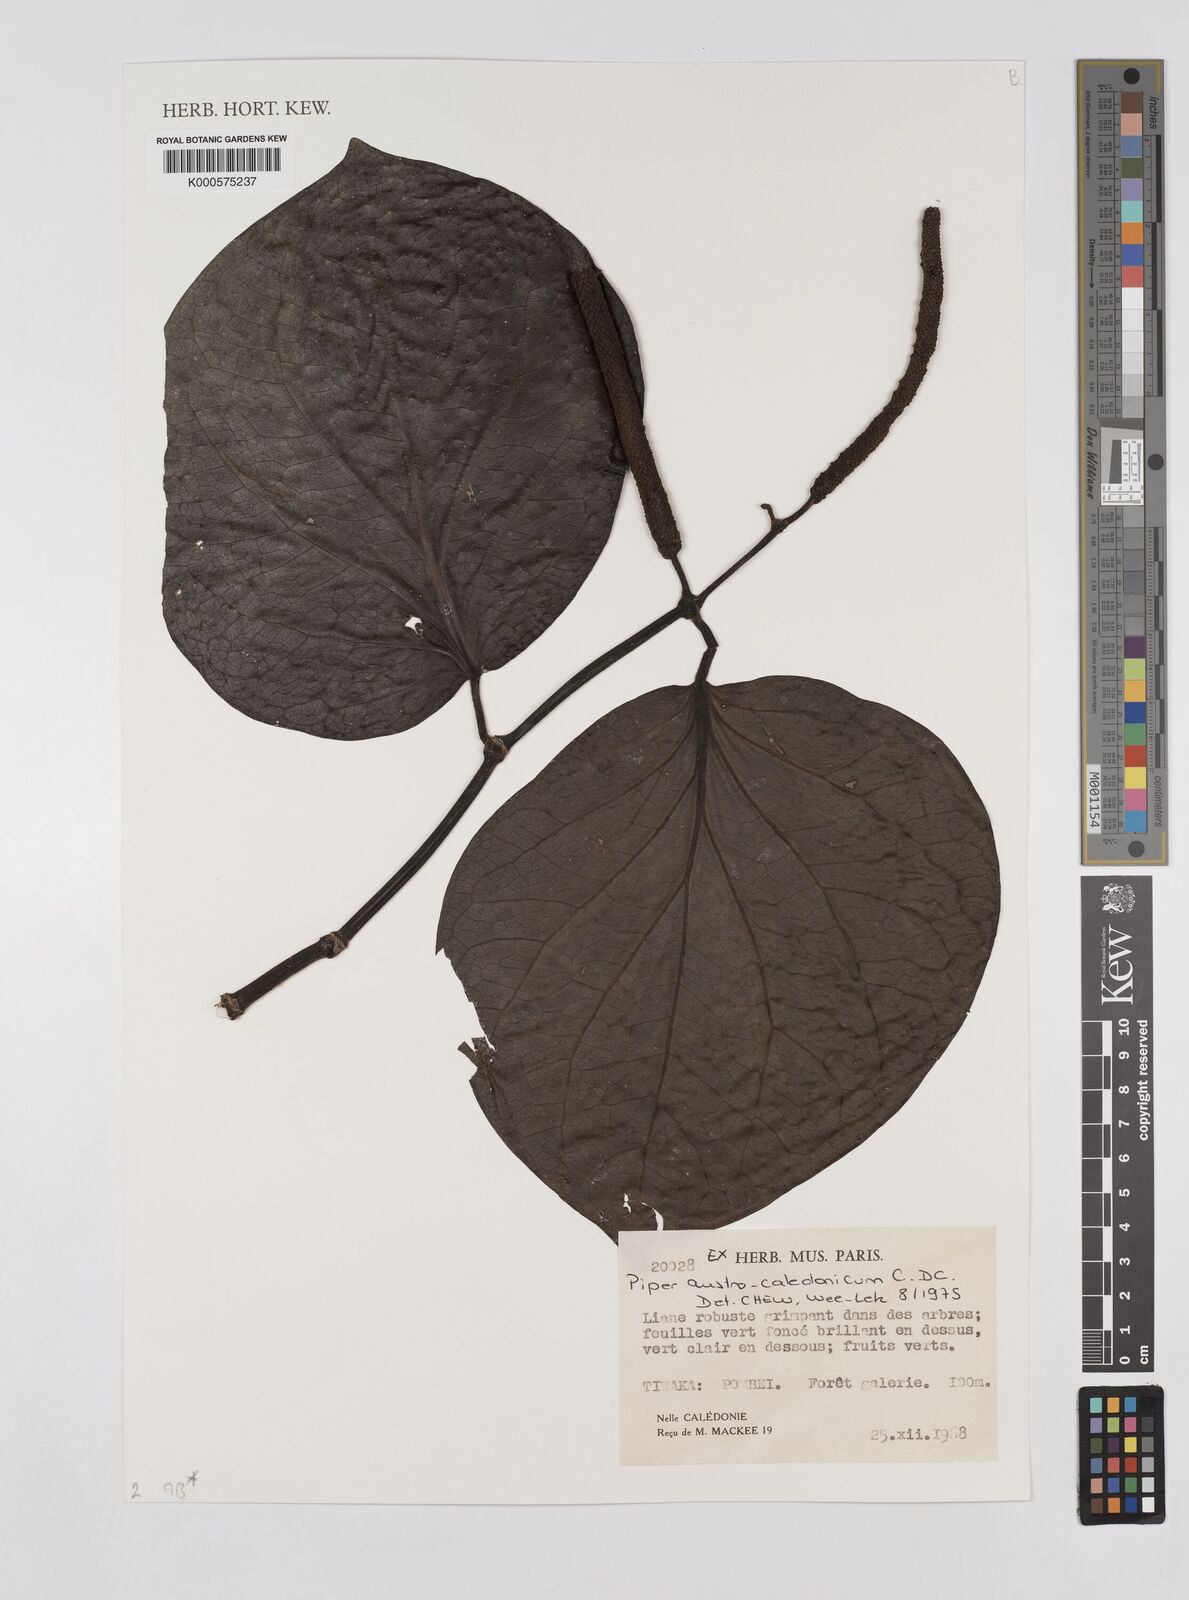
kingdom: Plantae
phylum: Tracheophyta
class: Magnoliopsida
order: Piperales
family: Piperaceae
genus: Piper
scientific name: Piper insectifugum
